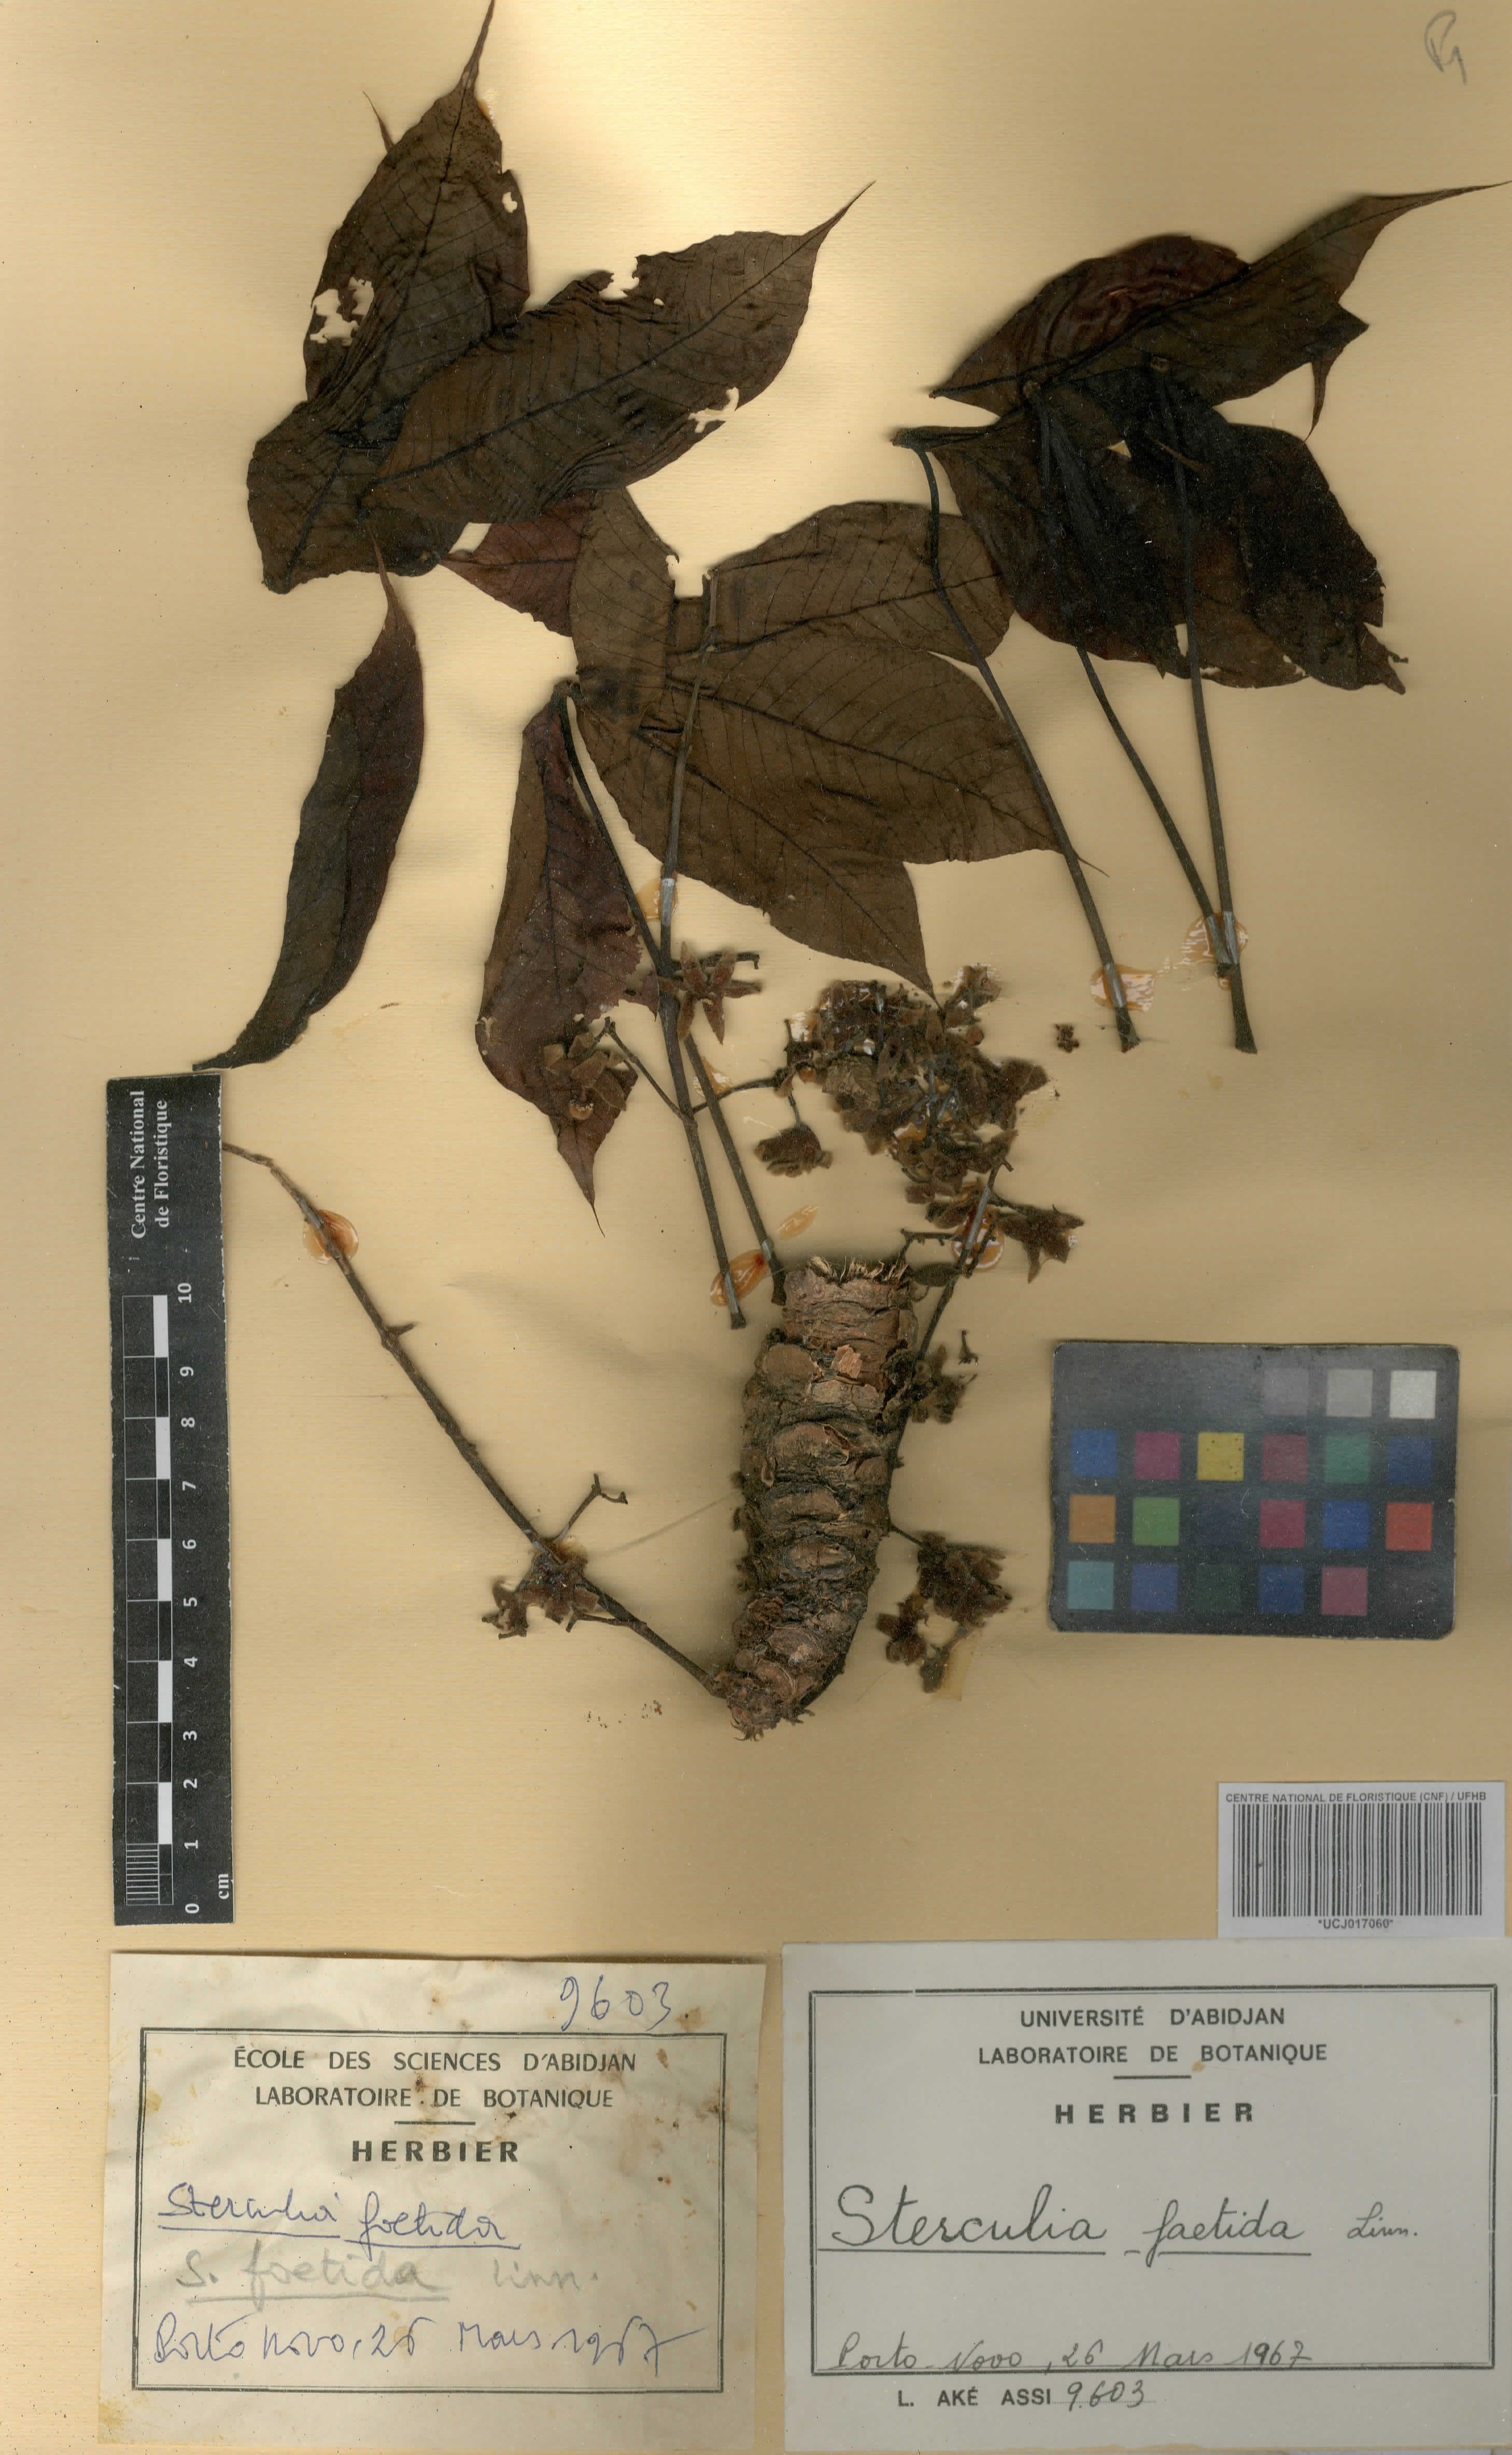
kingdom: Plantae
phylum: Tracheophyta
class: Magnoliopsida
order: Malvales
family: Malvaceae
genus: Sterculia
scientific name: Sterculia foetida
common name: Hazel sterculia
